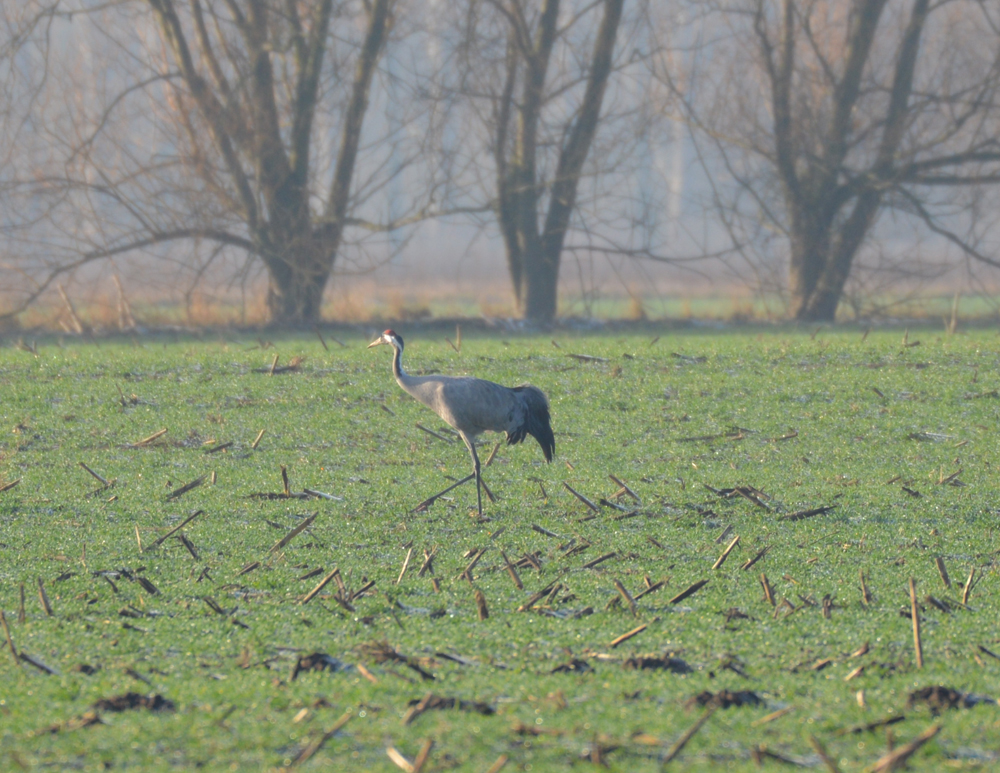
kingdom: Animalia
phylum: Chordata
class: Aves
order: Gruiformes
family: Gruidae
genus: Grus
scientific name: Grus grus
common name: Common crane
